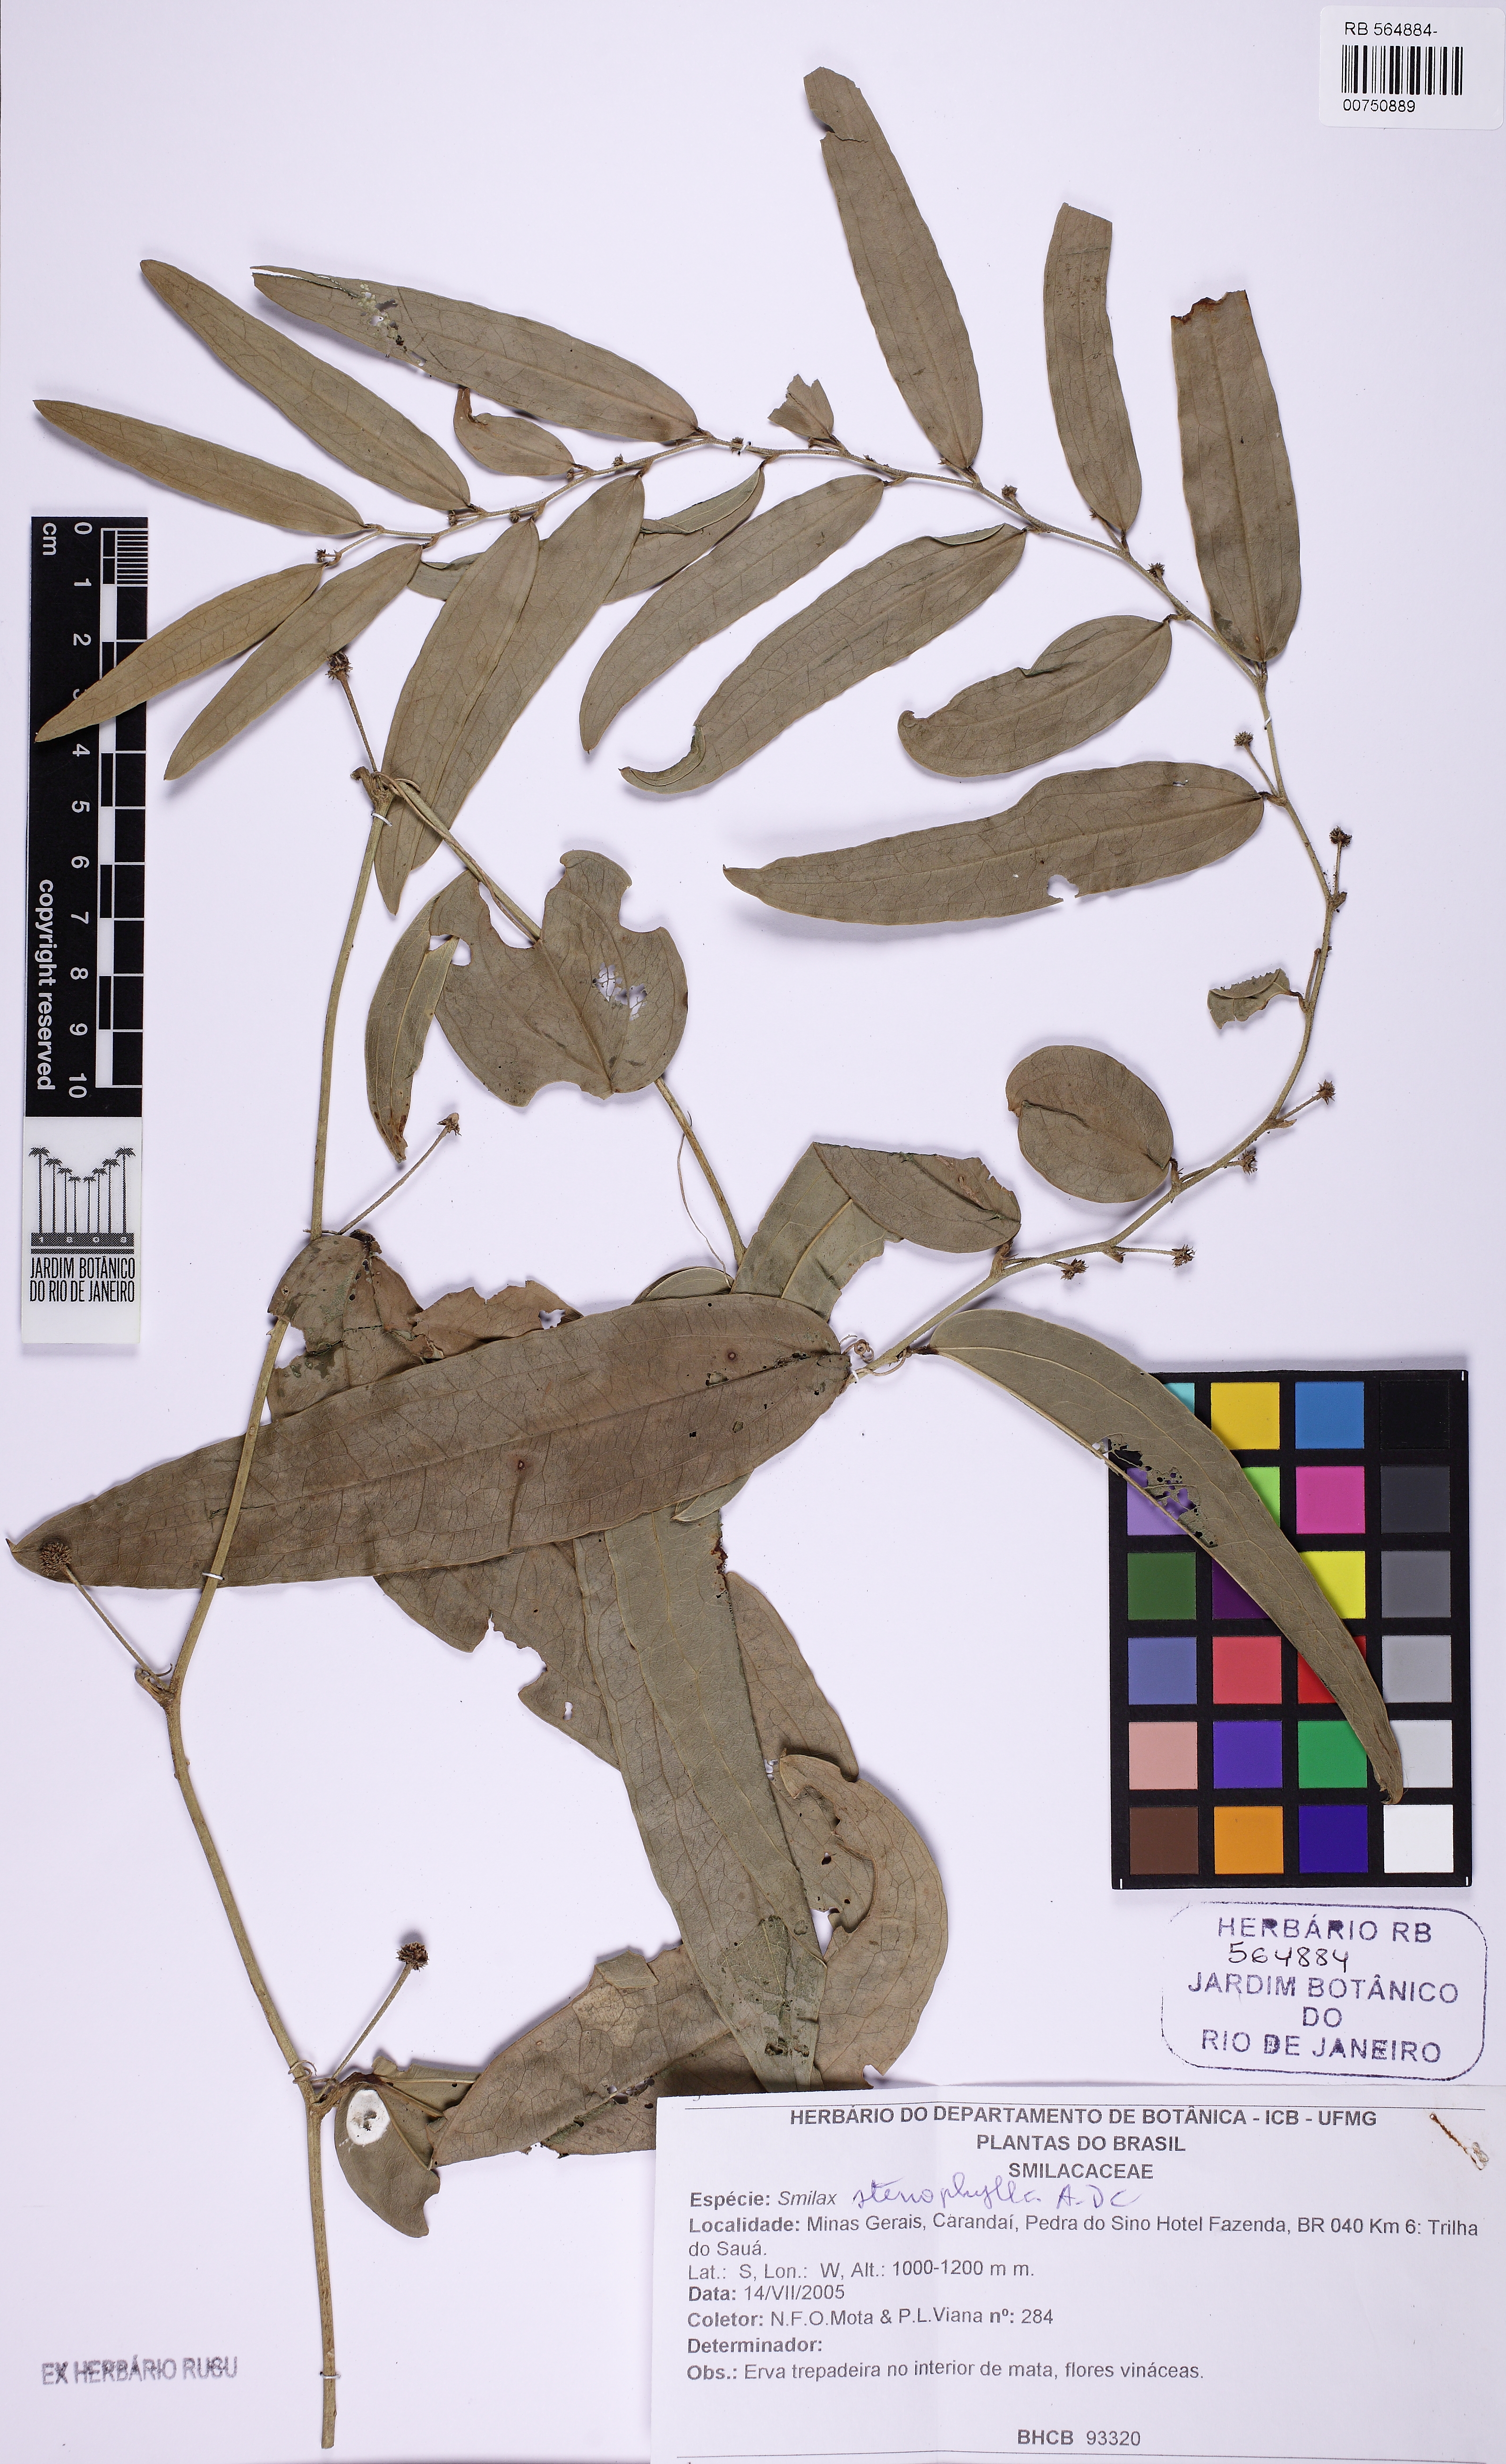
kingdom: Plantae
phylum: Tracheophyta
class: Liliopsida
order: Liliales
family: Smilacaceae
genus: Smilax
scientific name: Smilax stenophylla
